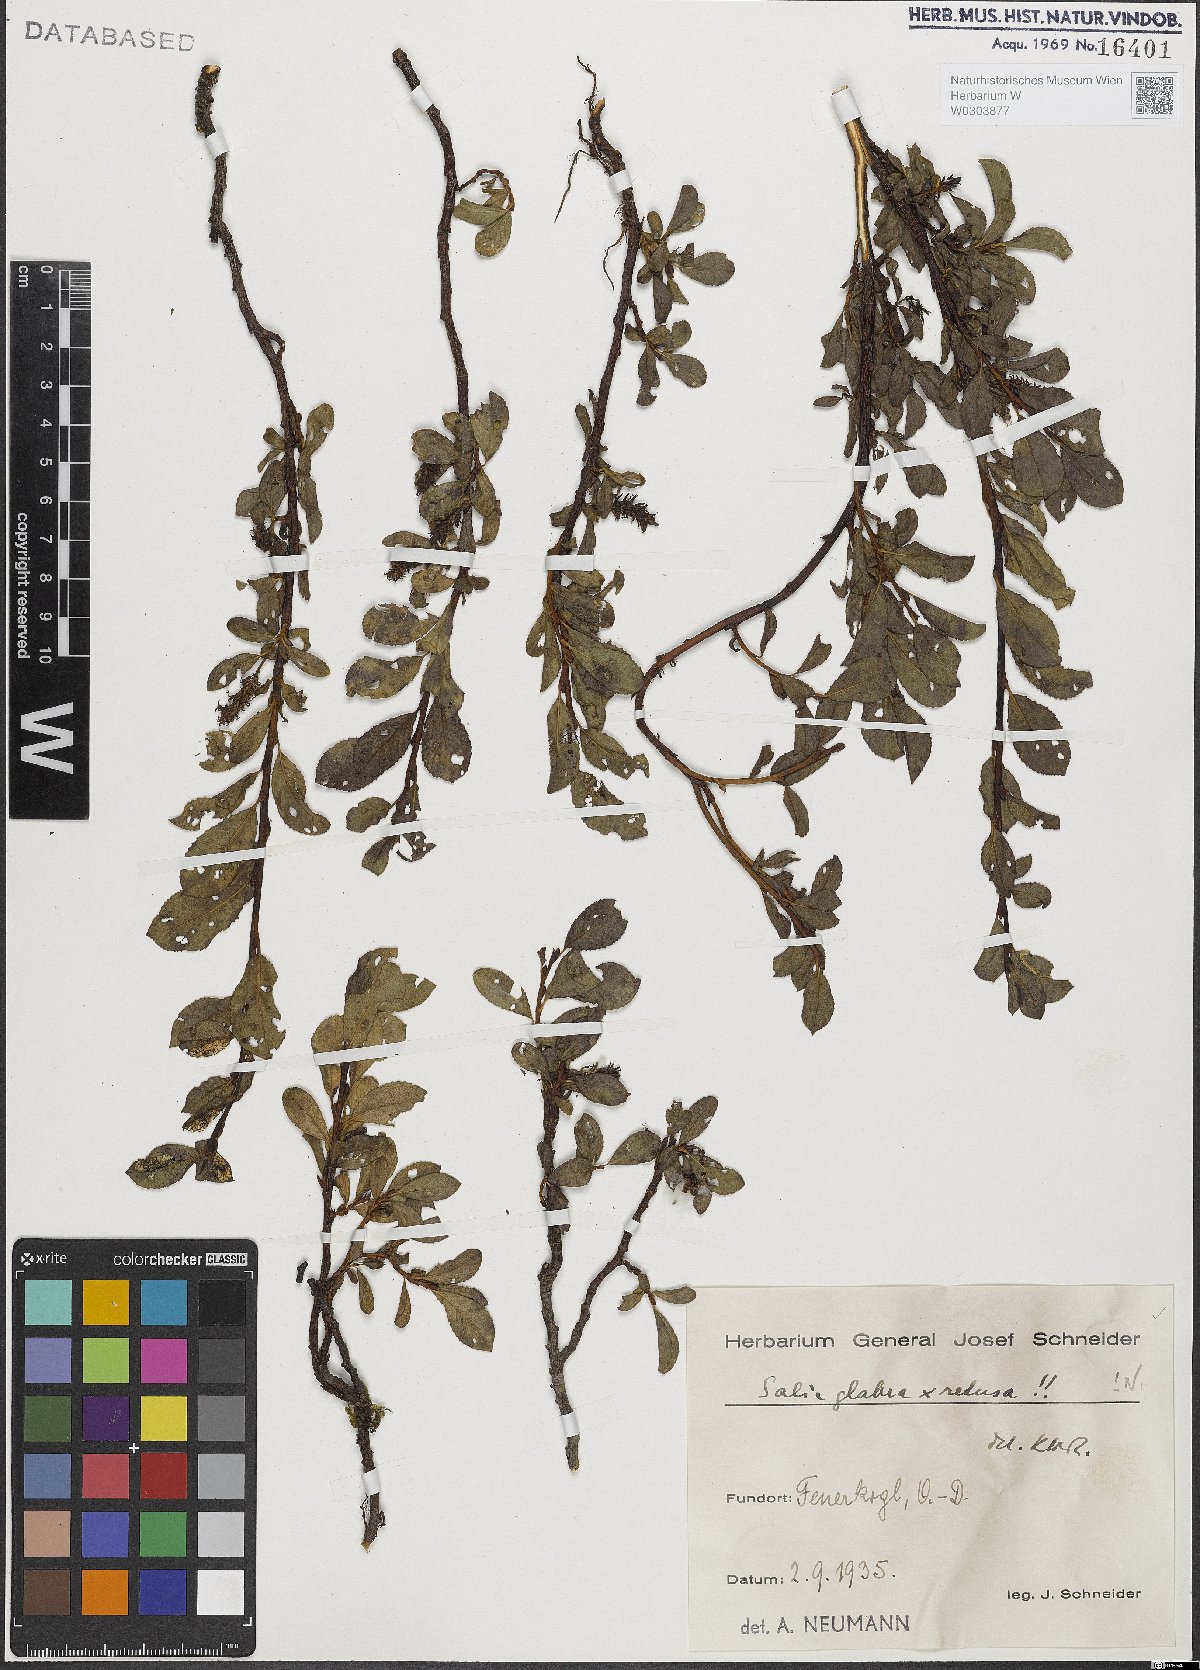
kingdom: Plantae
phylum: Tracheophyta
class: Magnoliopsida
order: Malpighiales
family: Salicaceae
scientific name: Salicaceae
